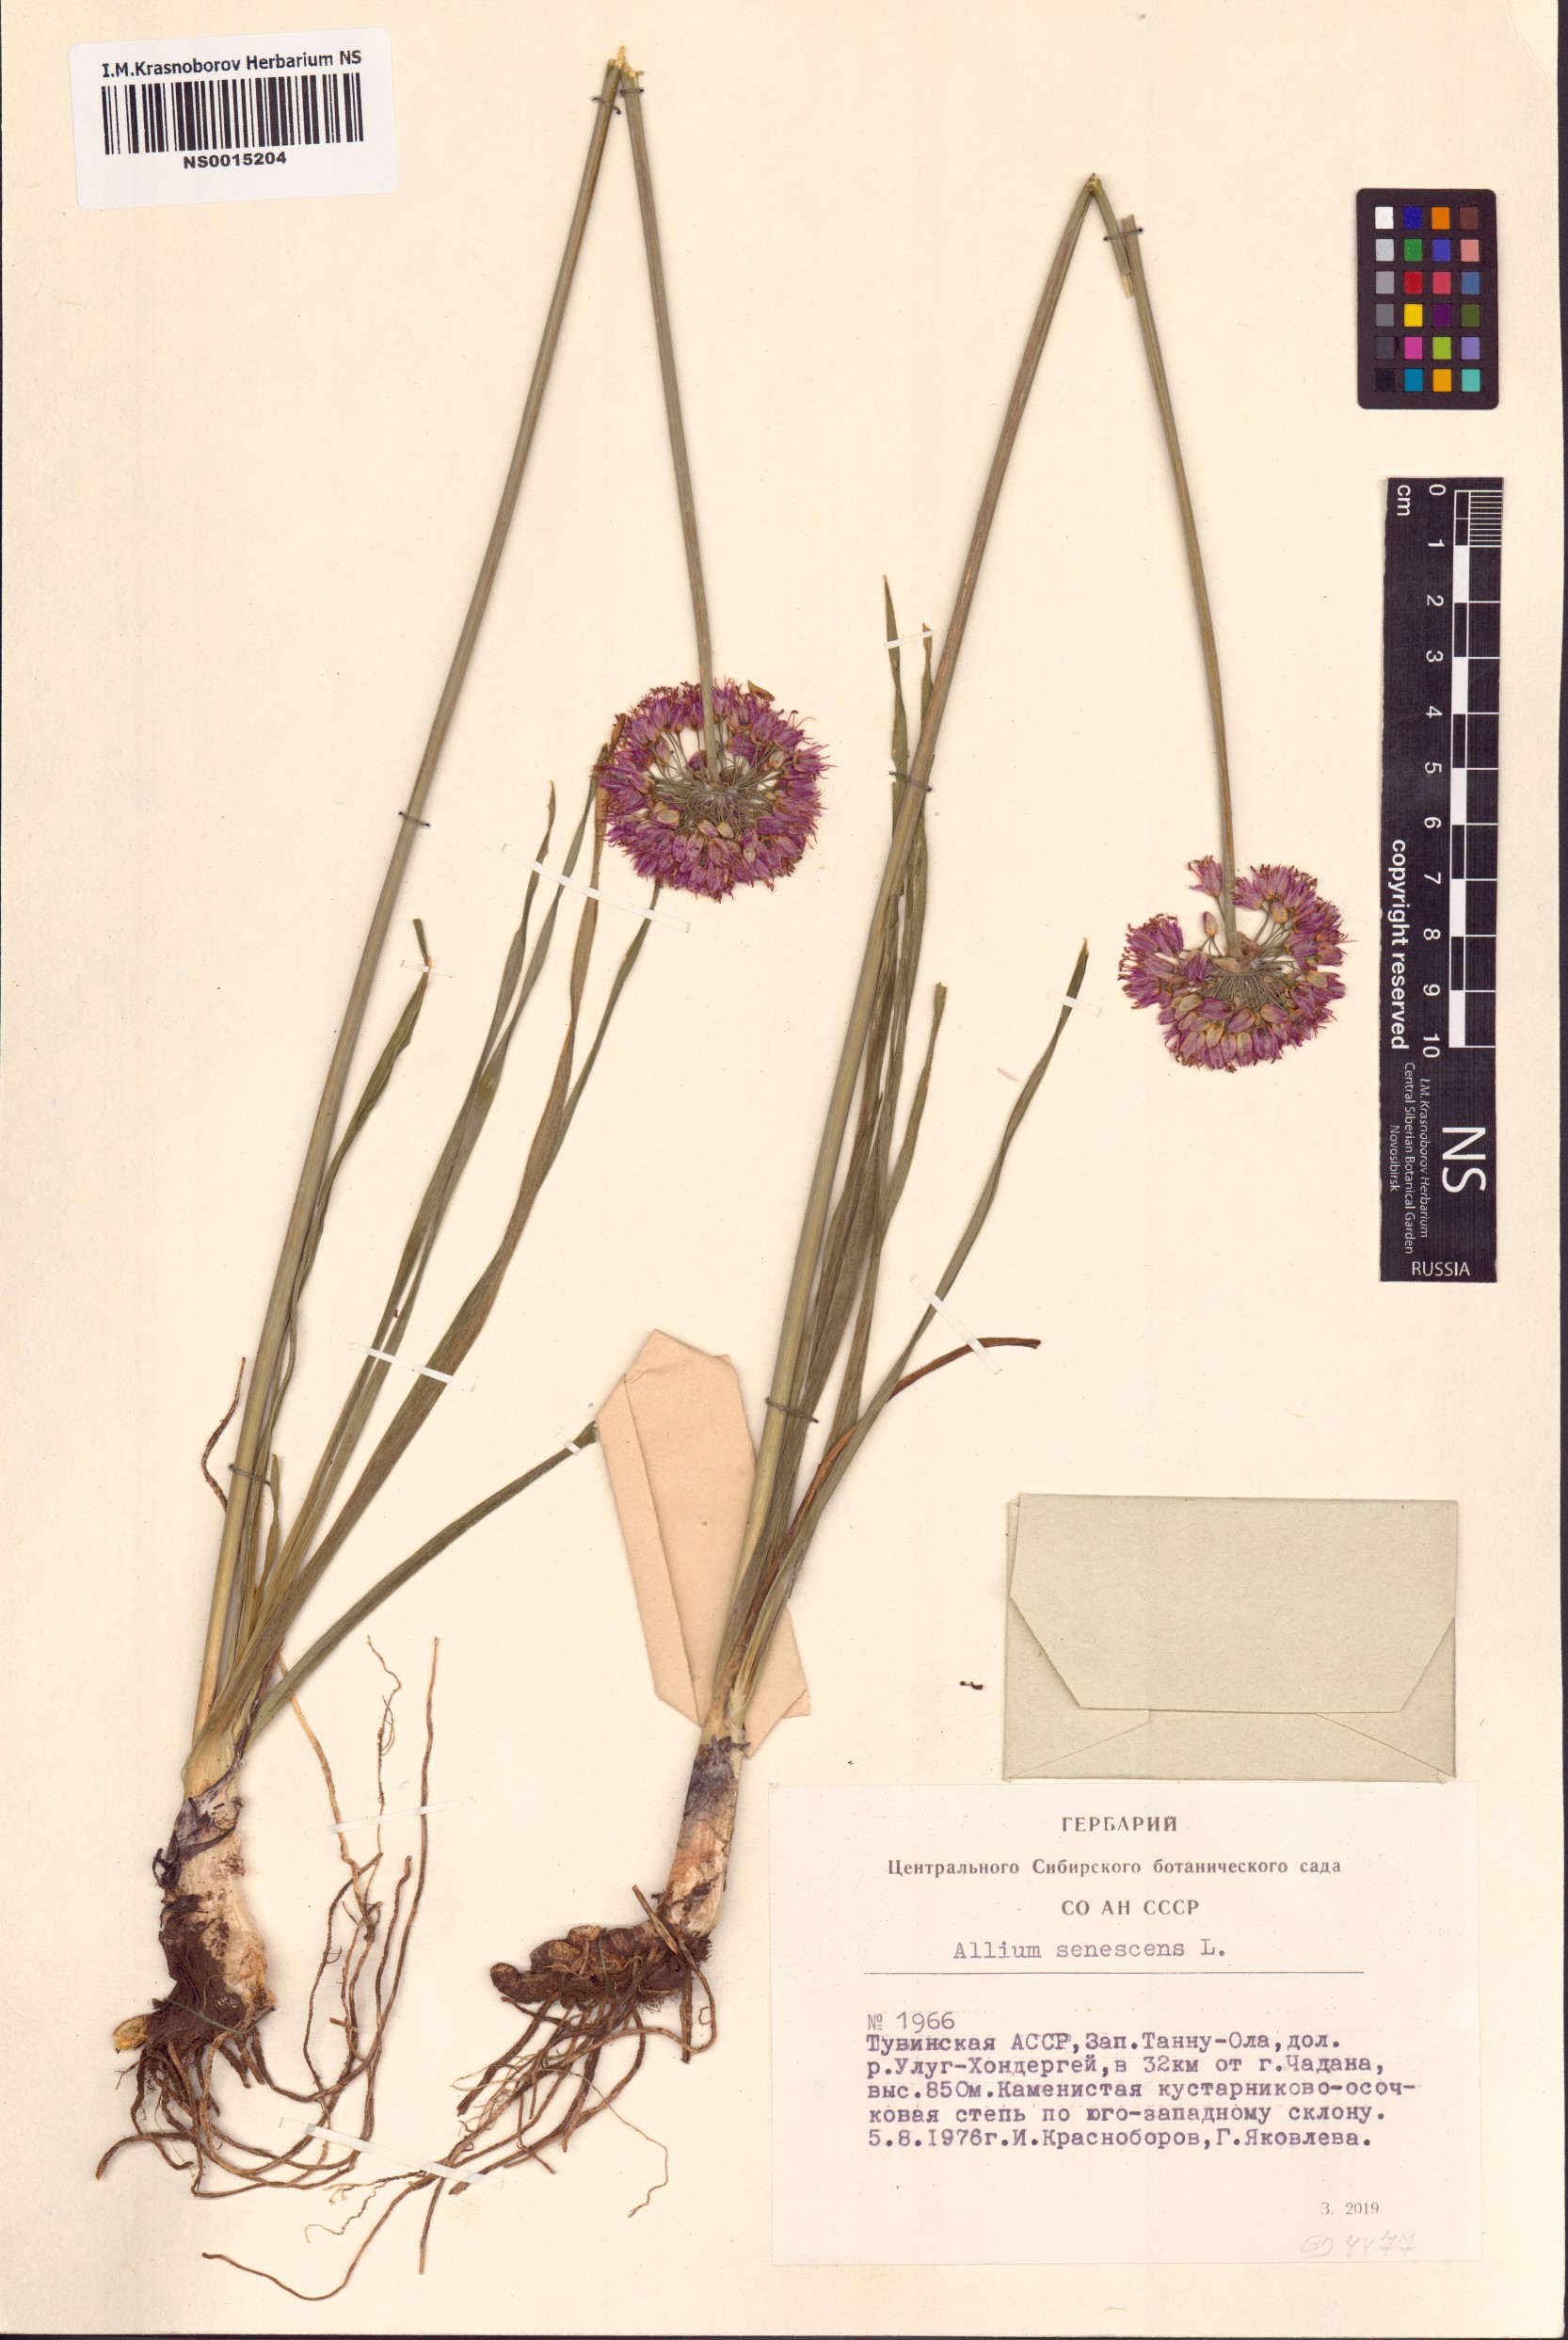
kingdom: Plantae
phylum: Tracheophyta
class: Liliopsida
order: Asparagales
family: Amaryllidaceae
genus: Allium
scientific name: Allium senescens
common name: German garlic
